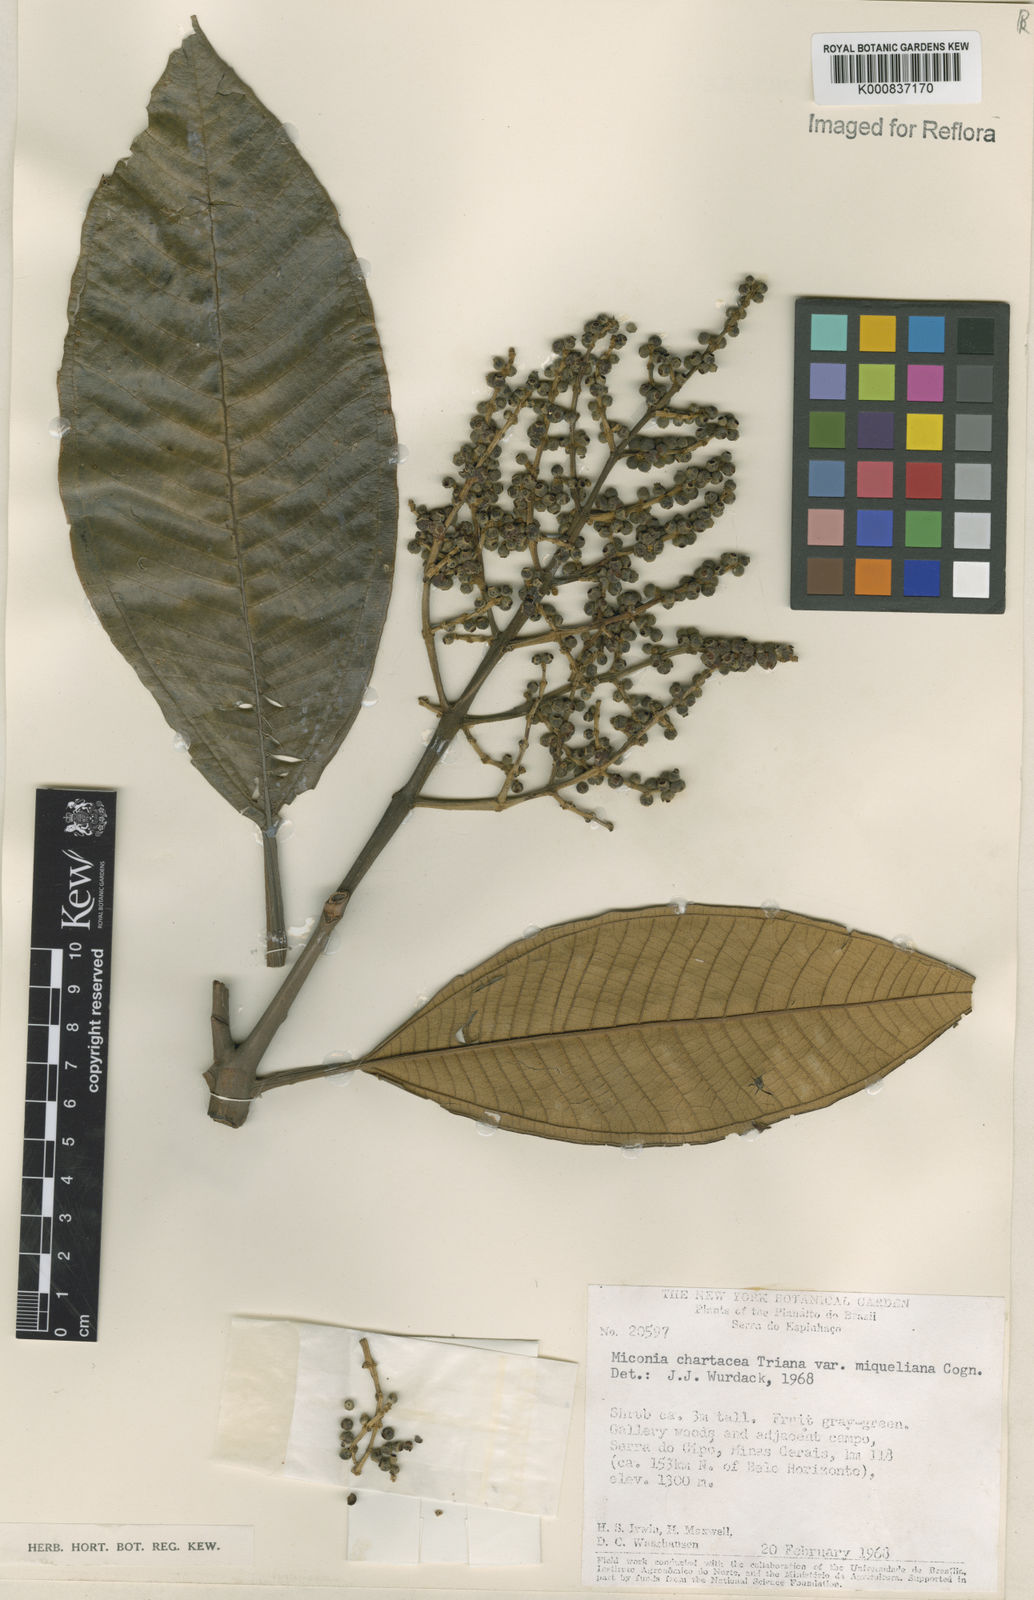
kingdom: Plantae
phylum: Tracheophyta
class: Magnoliopsida
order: Myrtales
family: Melastomataceae
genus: Miconia
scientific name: Miconia chartacea
